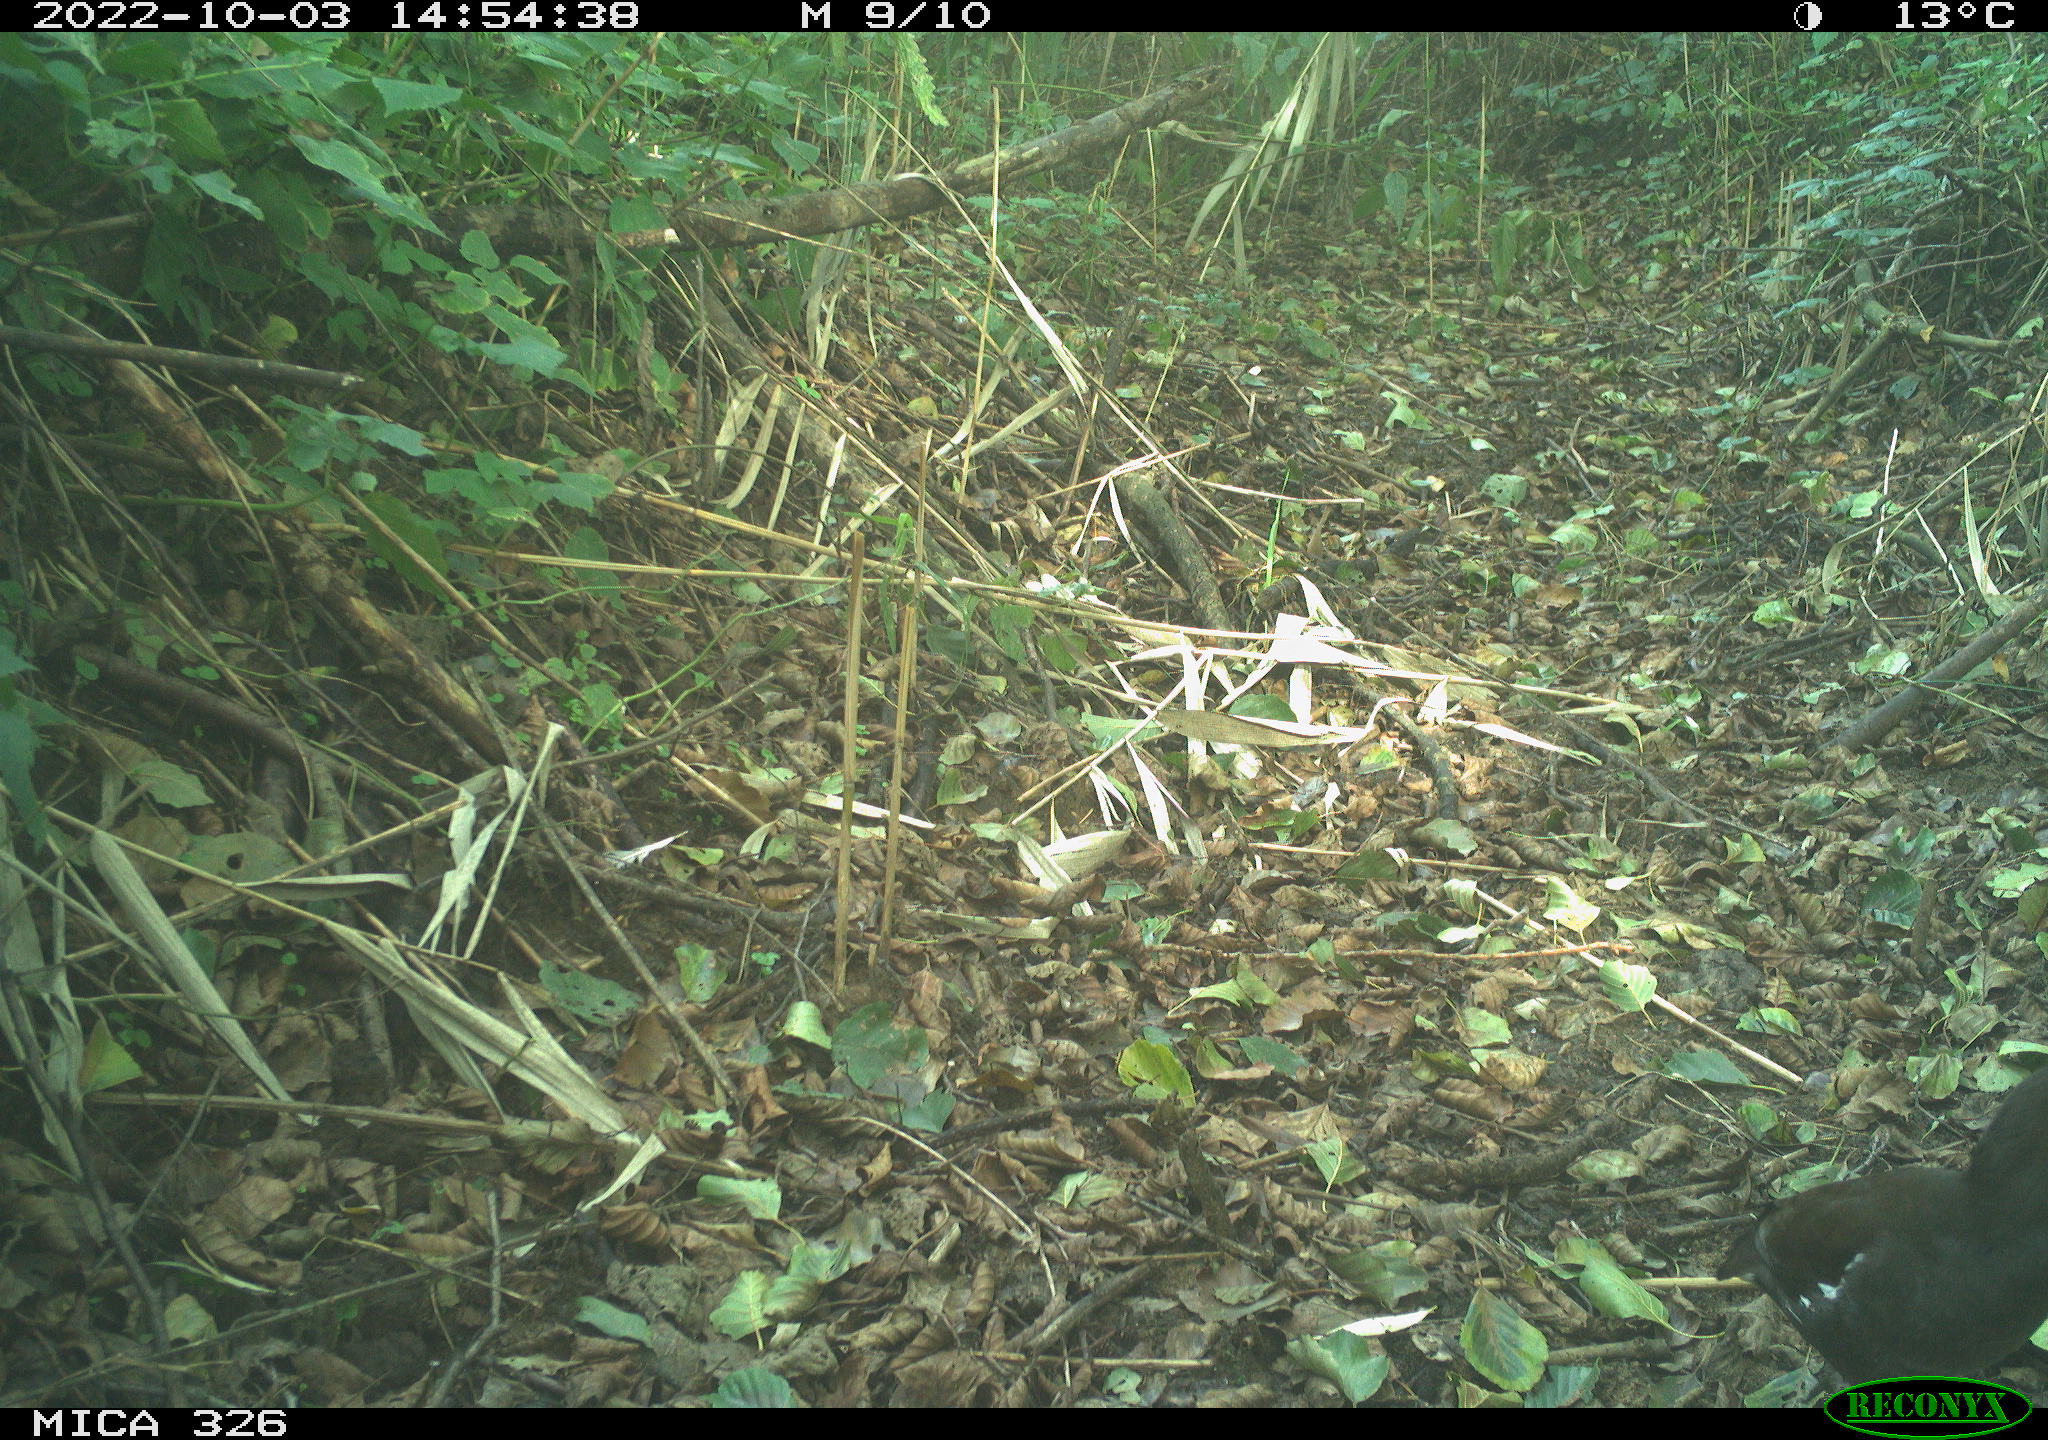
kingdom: Animalia
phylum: Chordata
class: Aves
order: Gruiformes
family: Rallidae
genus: Gallinula
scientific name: Gallinula chloropus
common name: Common moorhen
